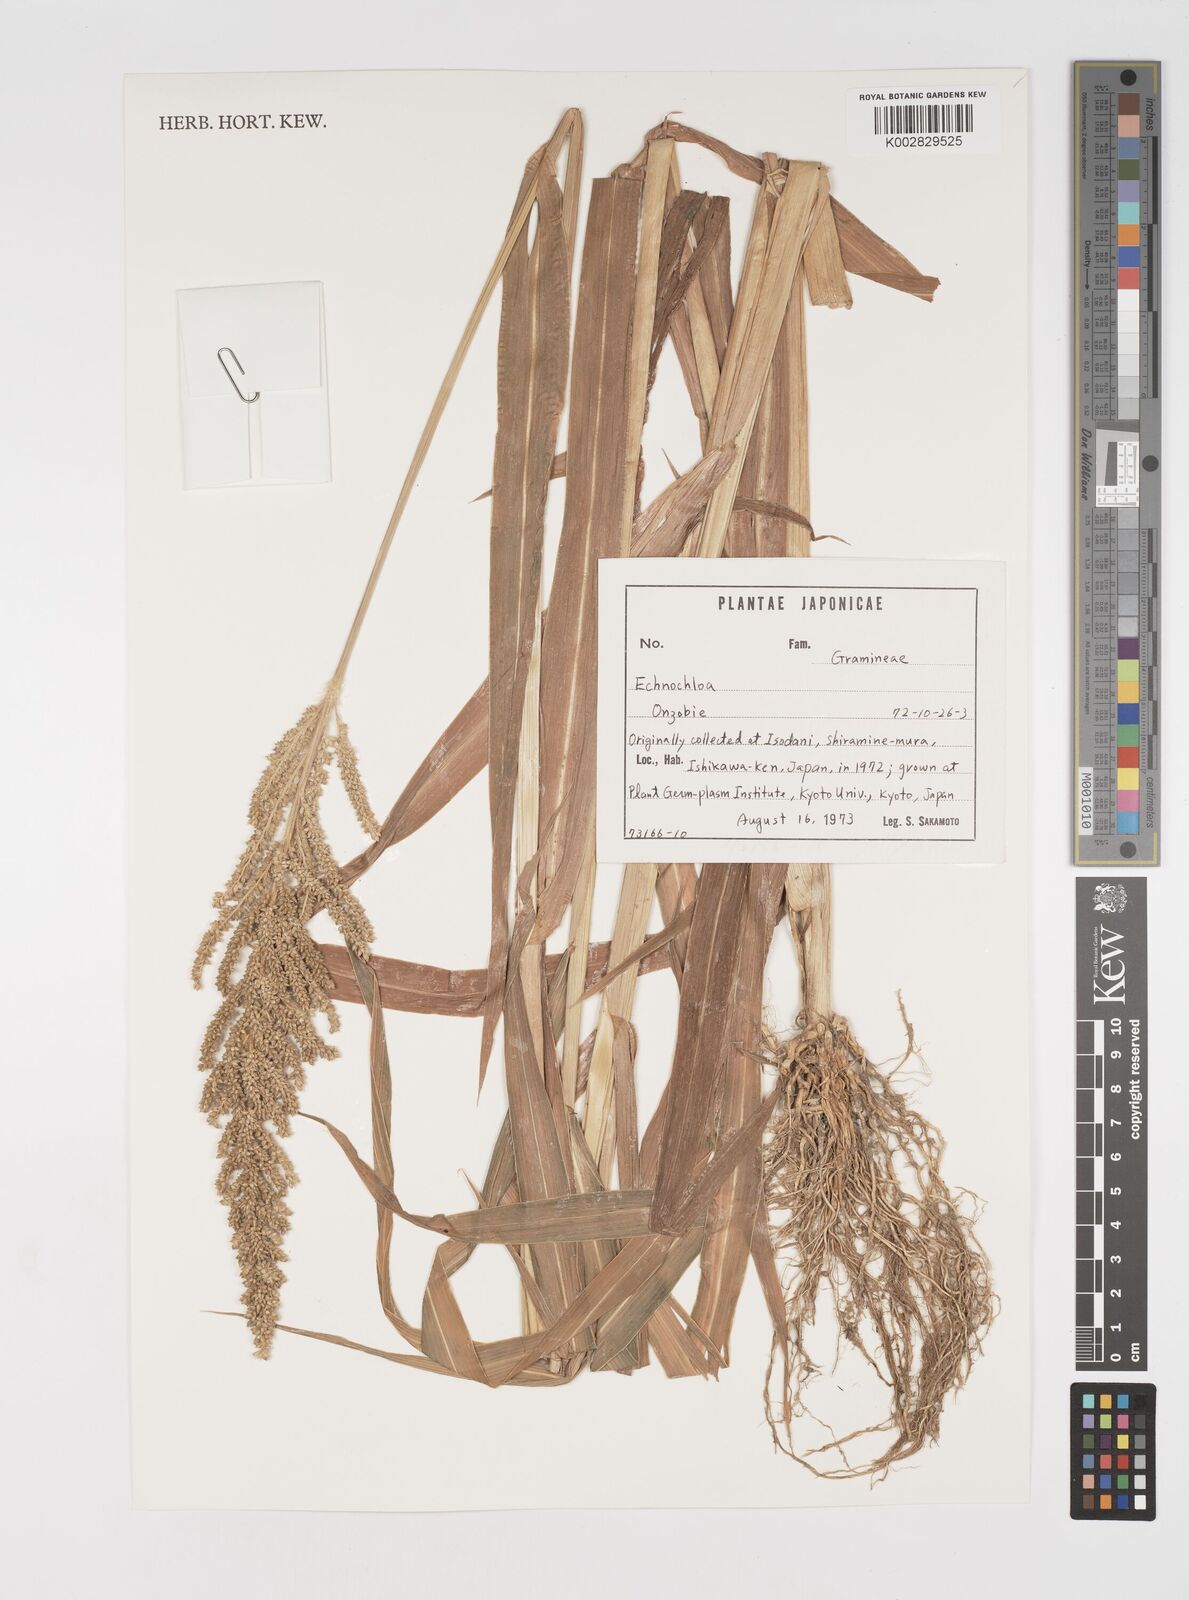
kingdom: Plantae
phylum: Tracheophyta
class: Liliopsida
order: Poales
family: Poaceae
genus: Echinochloa
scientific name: Echinochloa
